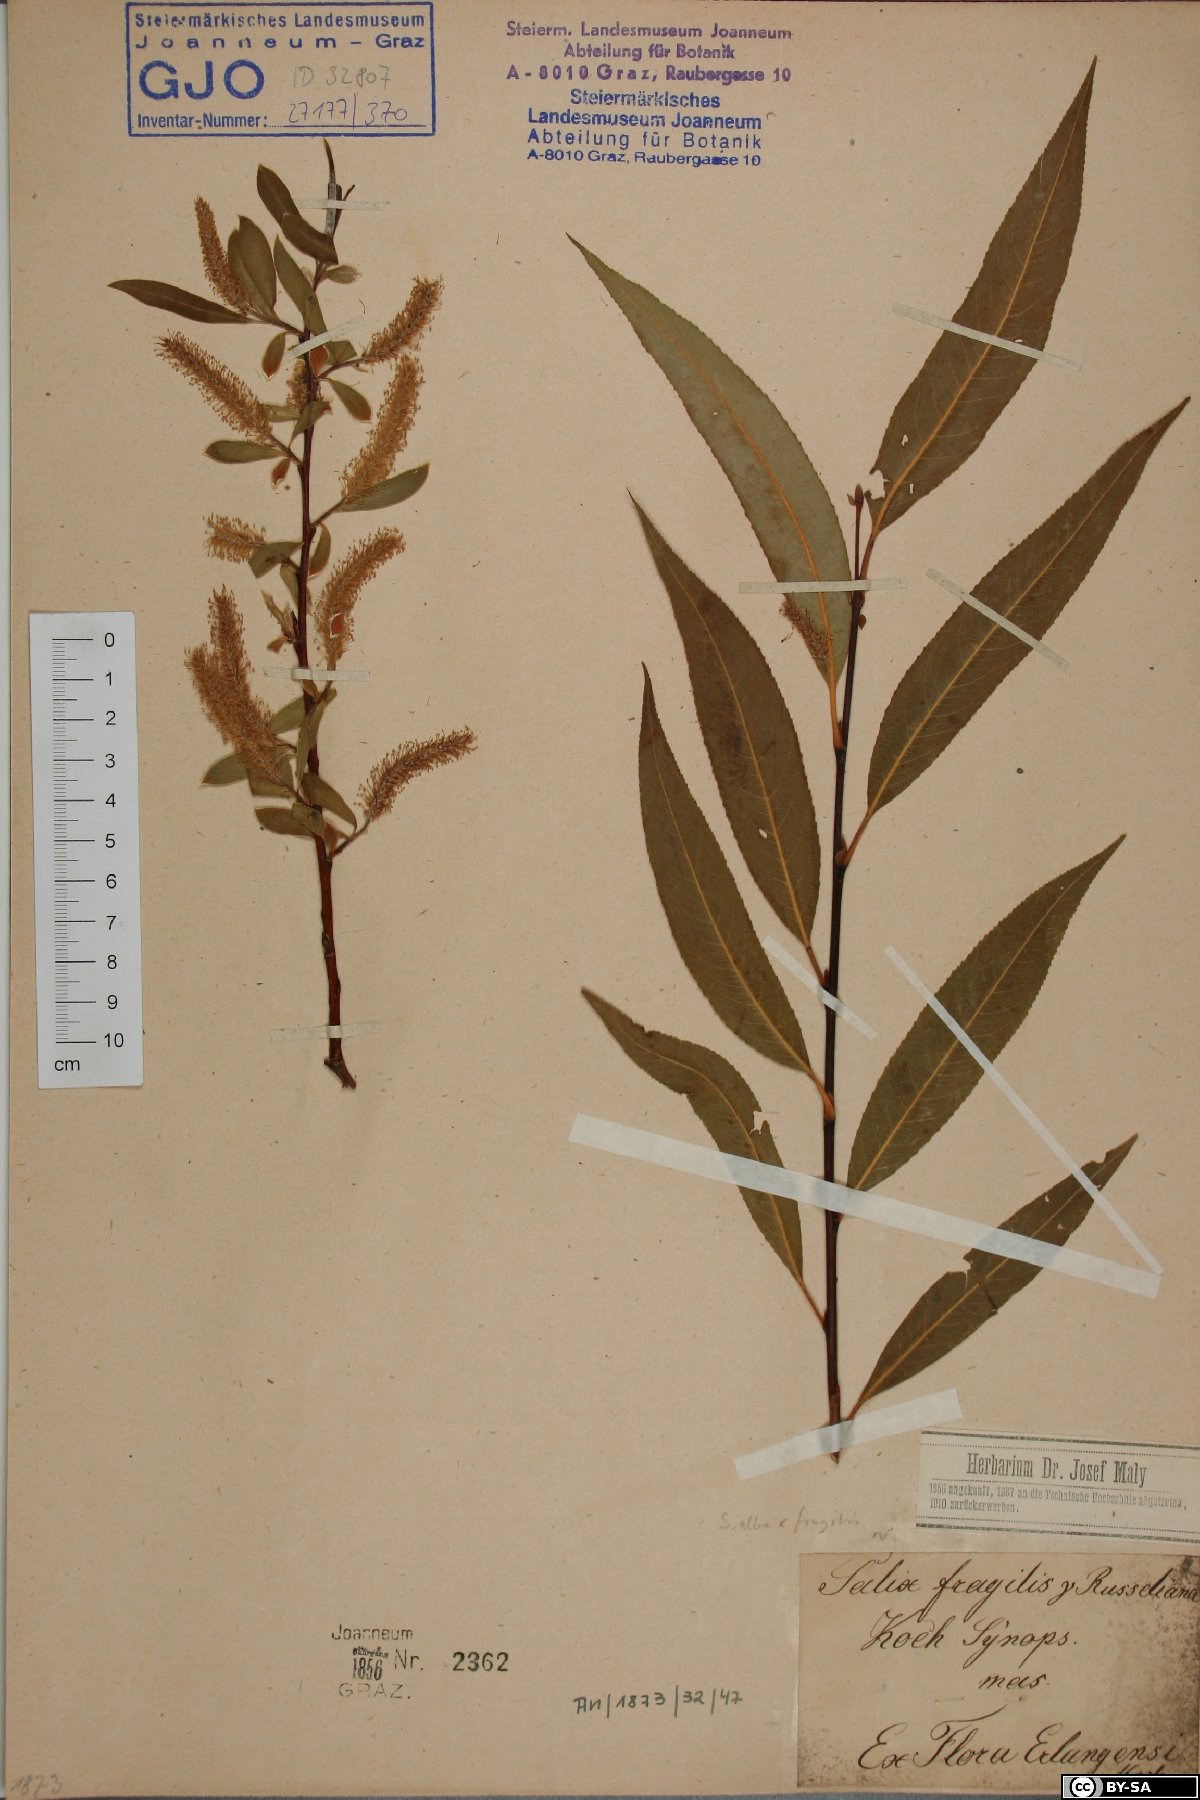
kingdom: Plantae
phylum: Tracheophyta
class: Magnoliopsida
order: Malpighiales
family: Salicaceae
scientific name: Salicaceae
